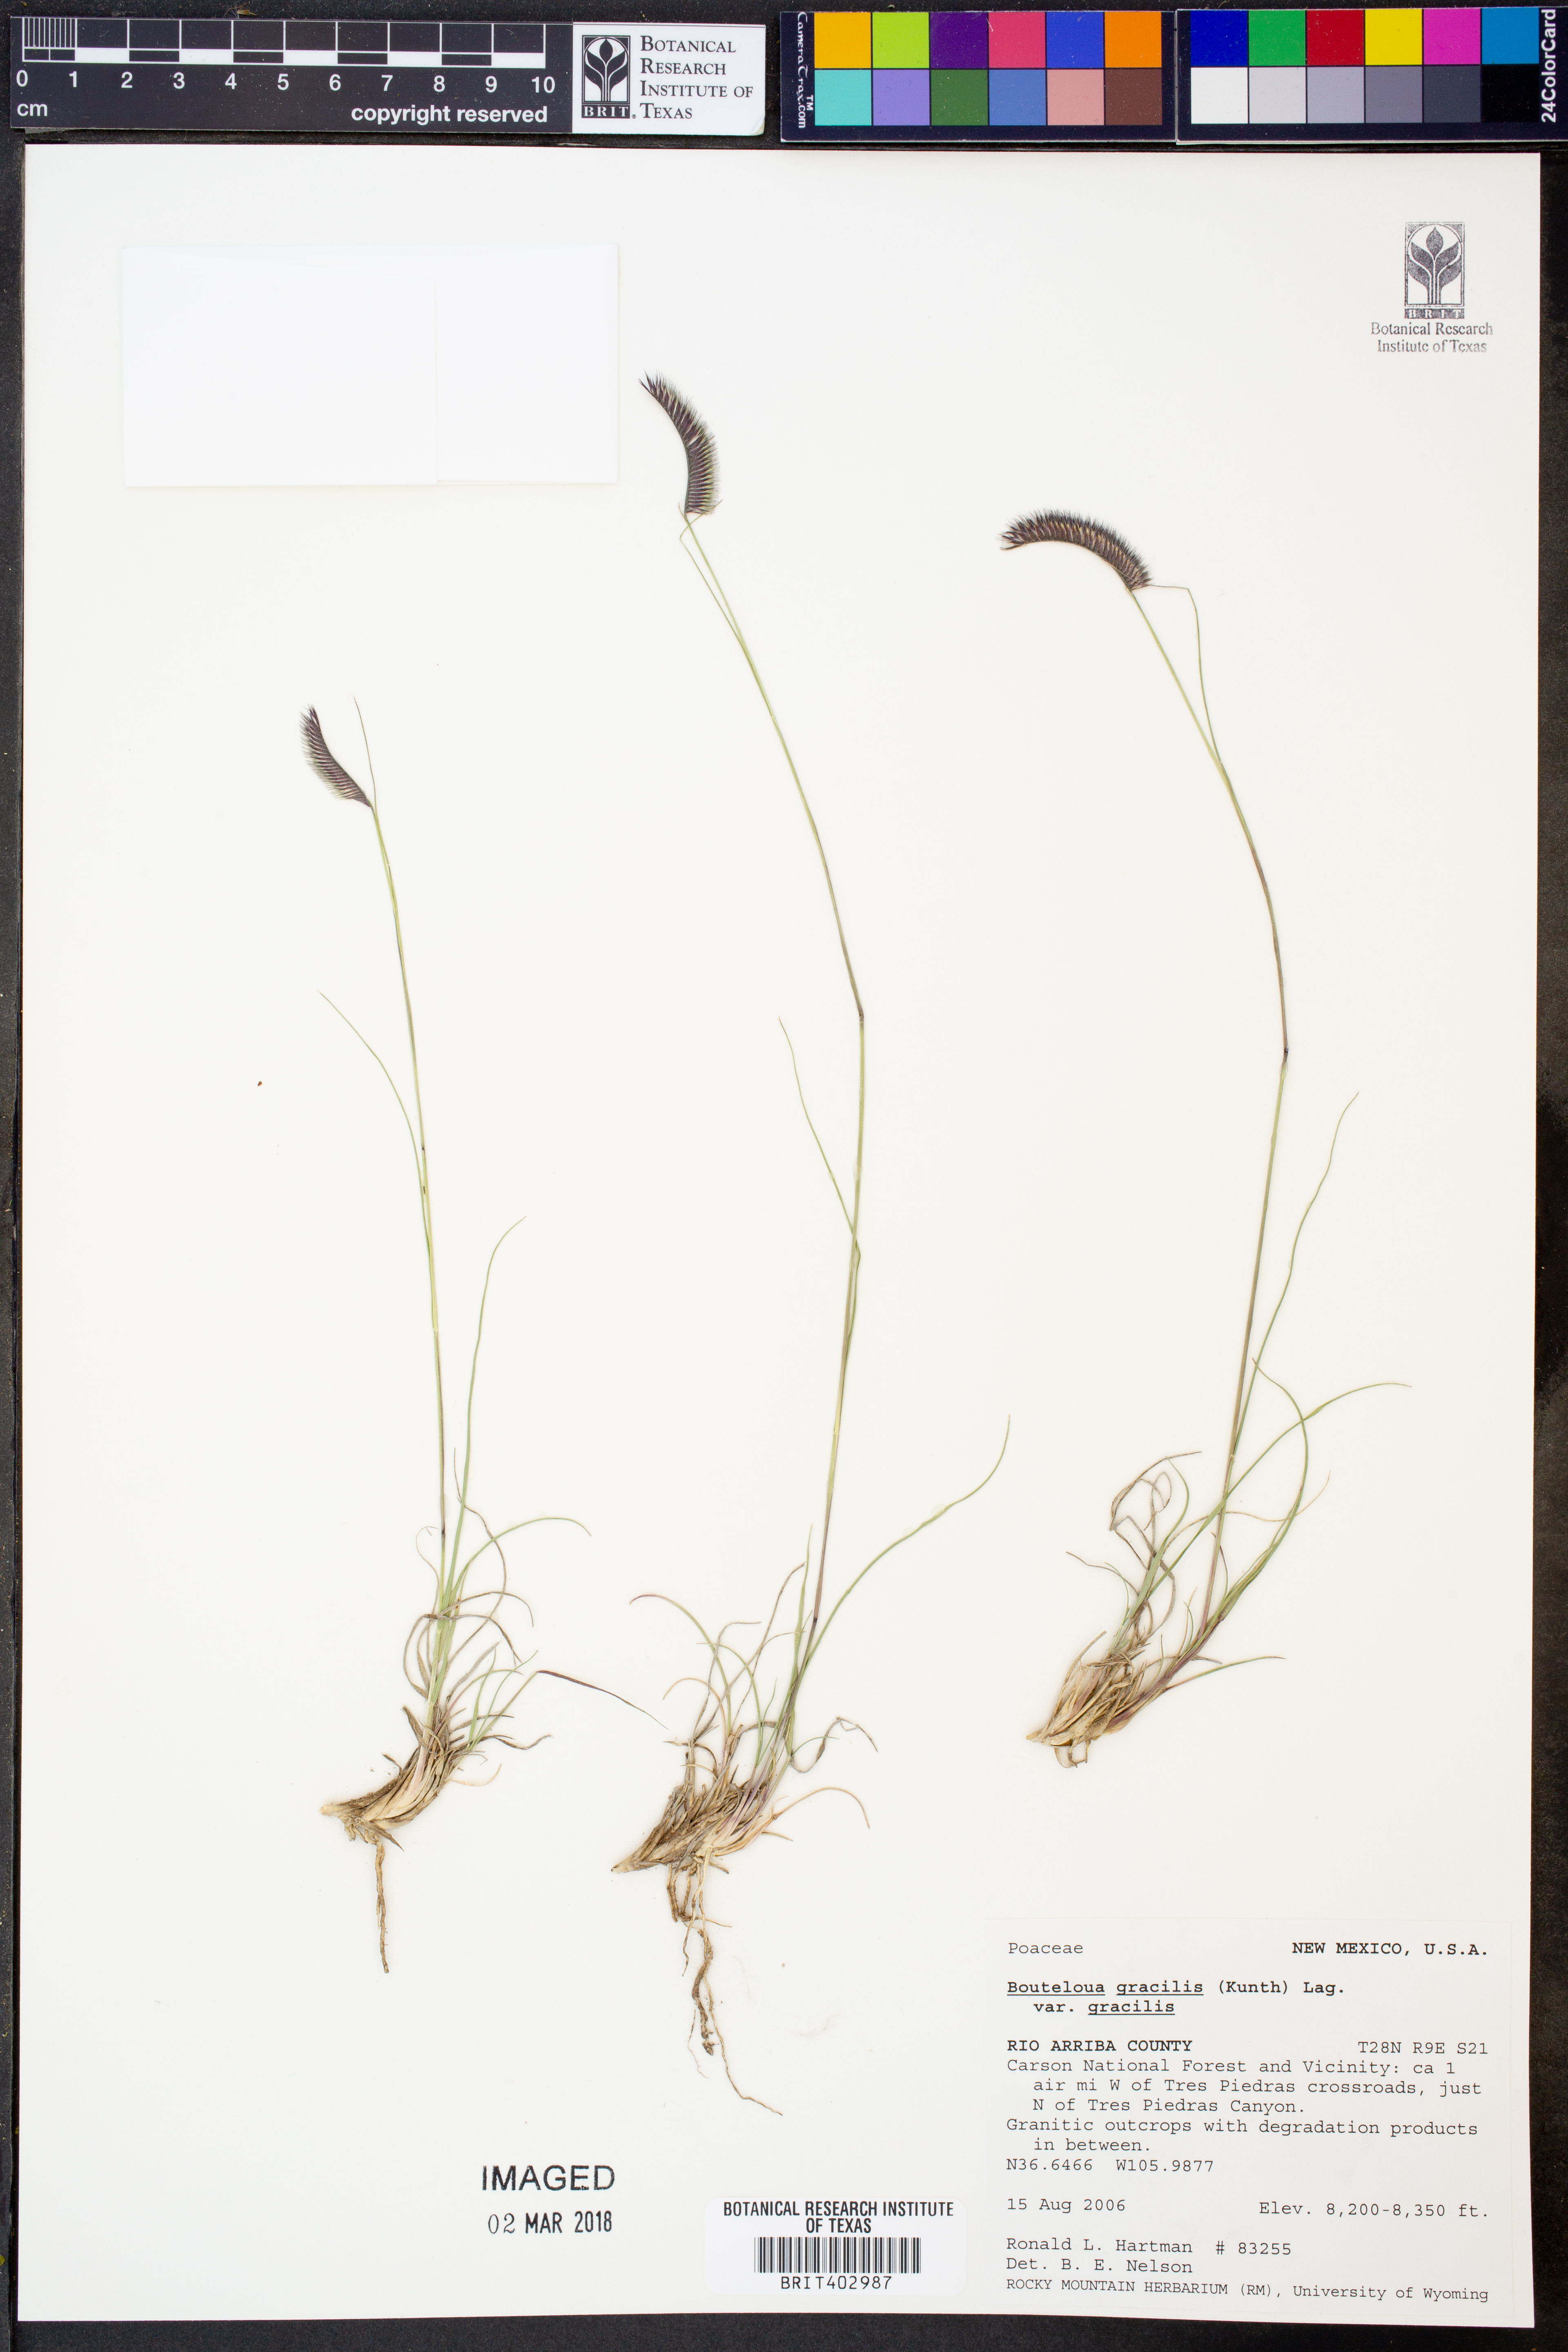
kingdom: Plantae
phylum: Tracheophyta
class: Liliopsida
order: Poales
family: Poaceae
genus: Bouteloua
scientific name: Bouteloua gracilis
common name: Blue grama
